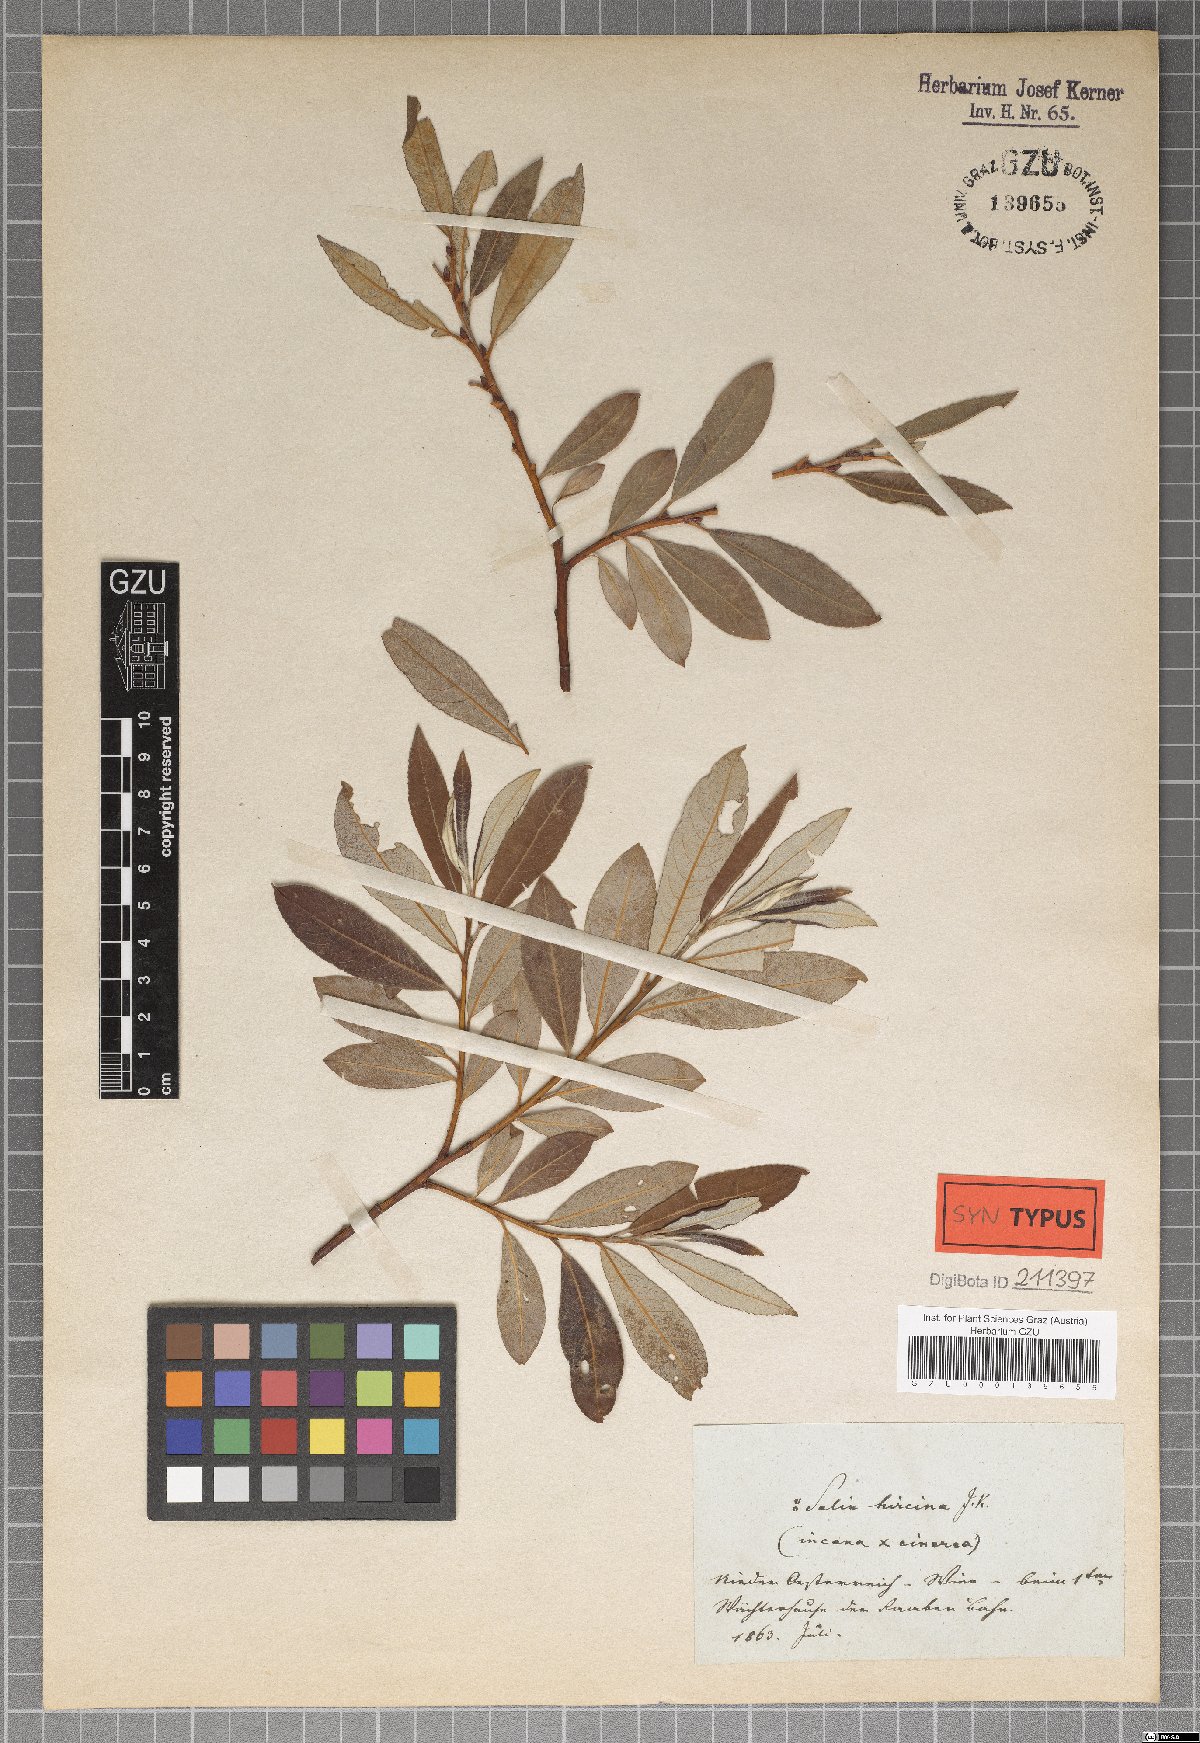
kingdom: Plantae
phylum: Tracheophyta
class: Magnoliopsida
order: Malpighiales
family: Salicaceae
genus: Salix
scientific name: Salix eleagnos
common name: Elaeagnus willow
